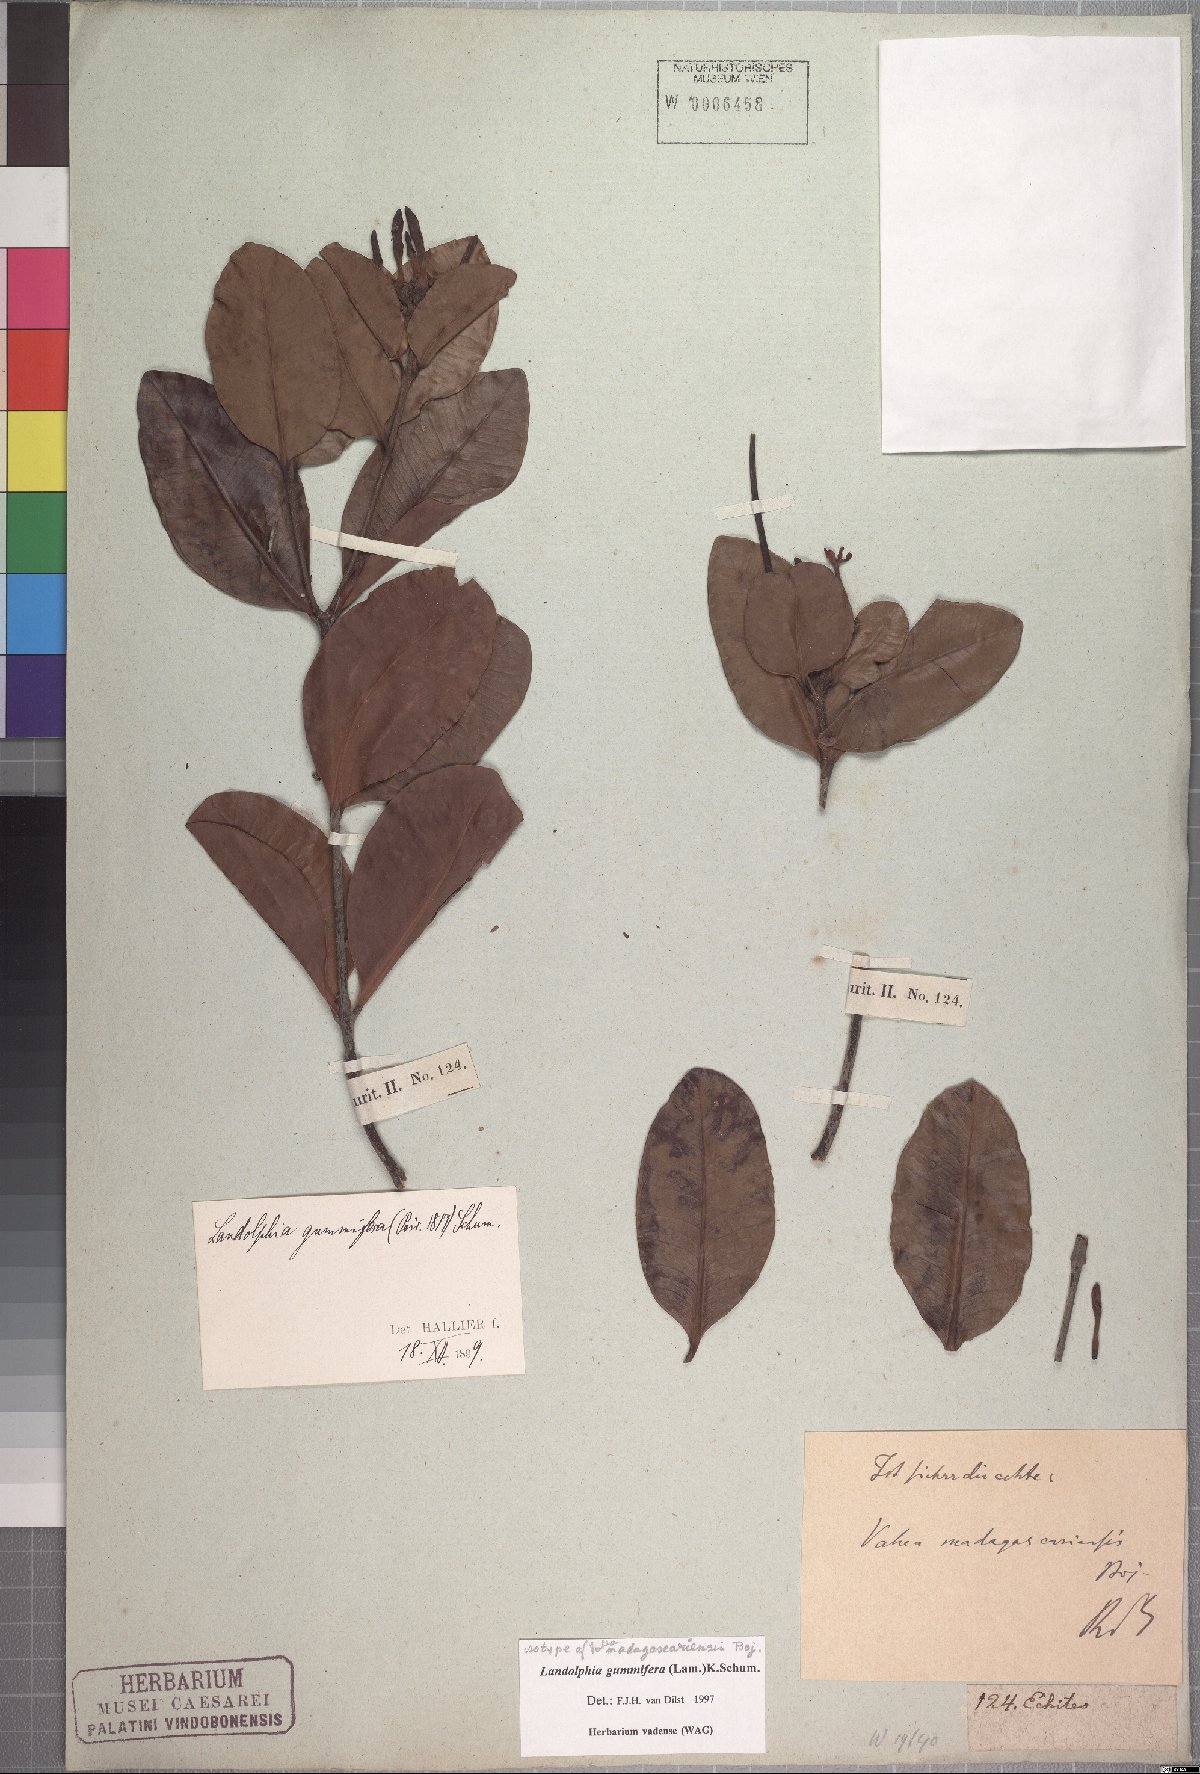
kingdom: Plantae
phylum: Tracheophyta
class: Magnoliopsida
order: Gentianales
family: Apocynaceae
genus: Landolphia
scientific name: Landolphia gummifera
